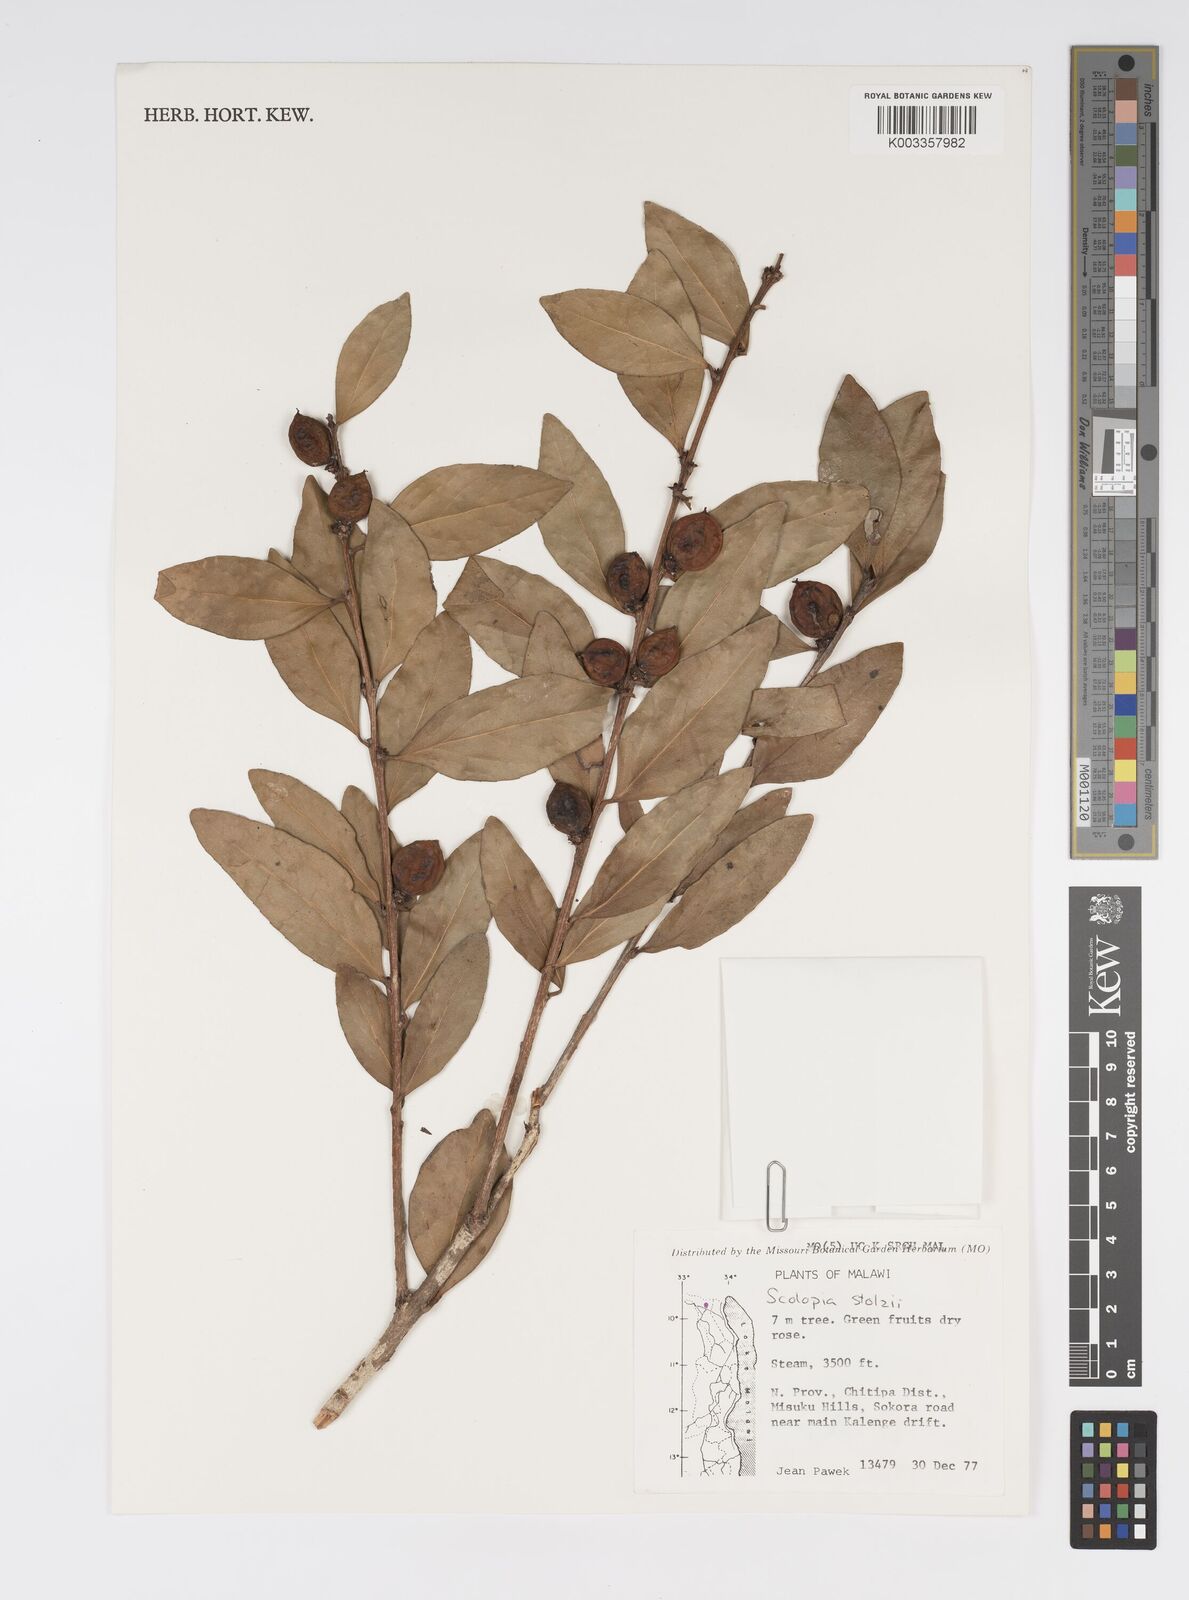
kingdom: Plantae
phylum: Tracheophyta
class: Magnoliopsida
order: Malpighiales
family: Salicaceae
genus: Scolopia
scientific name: Scolopia stolzii
